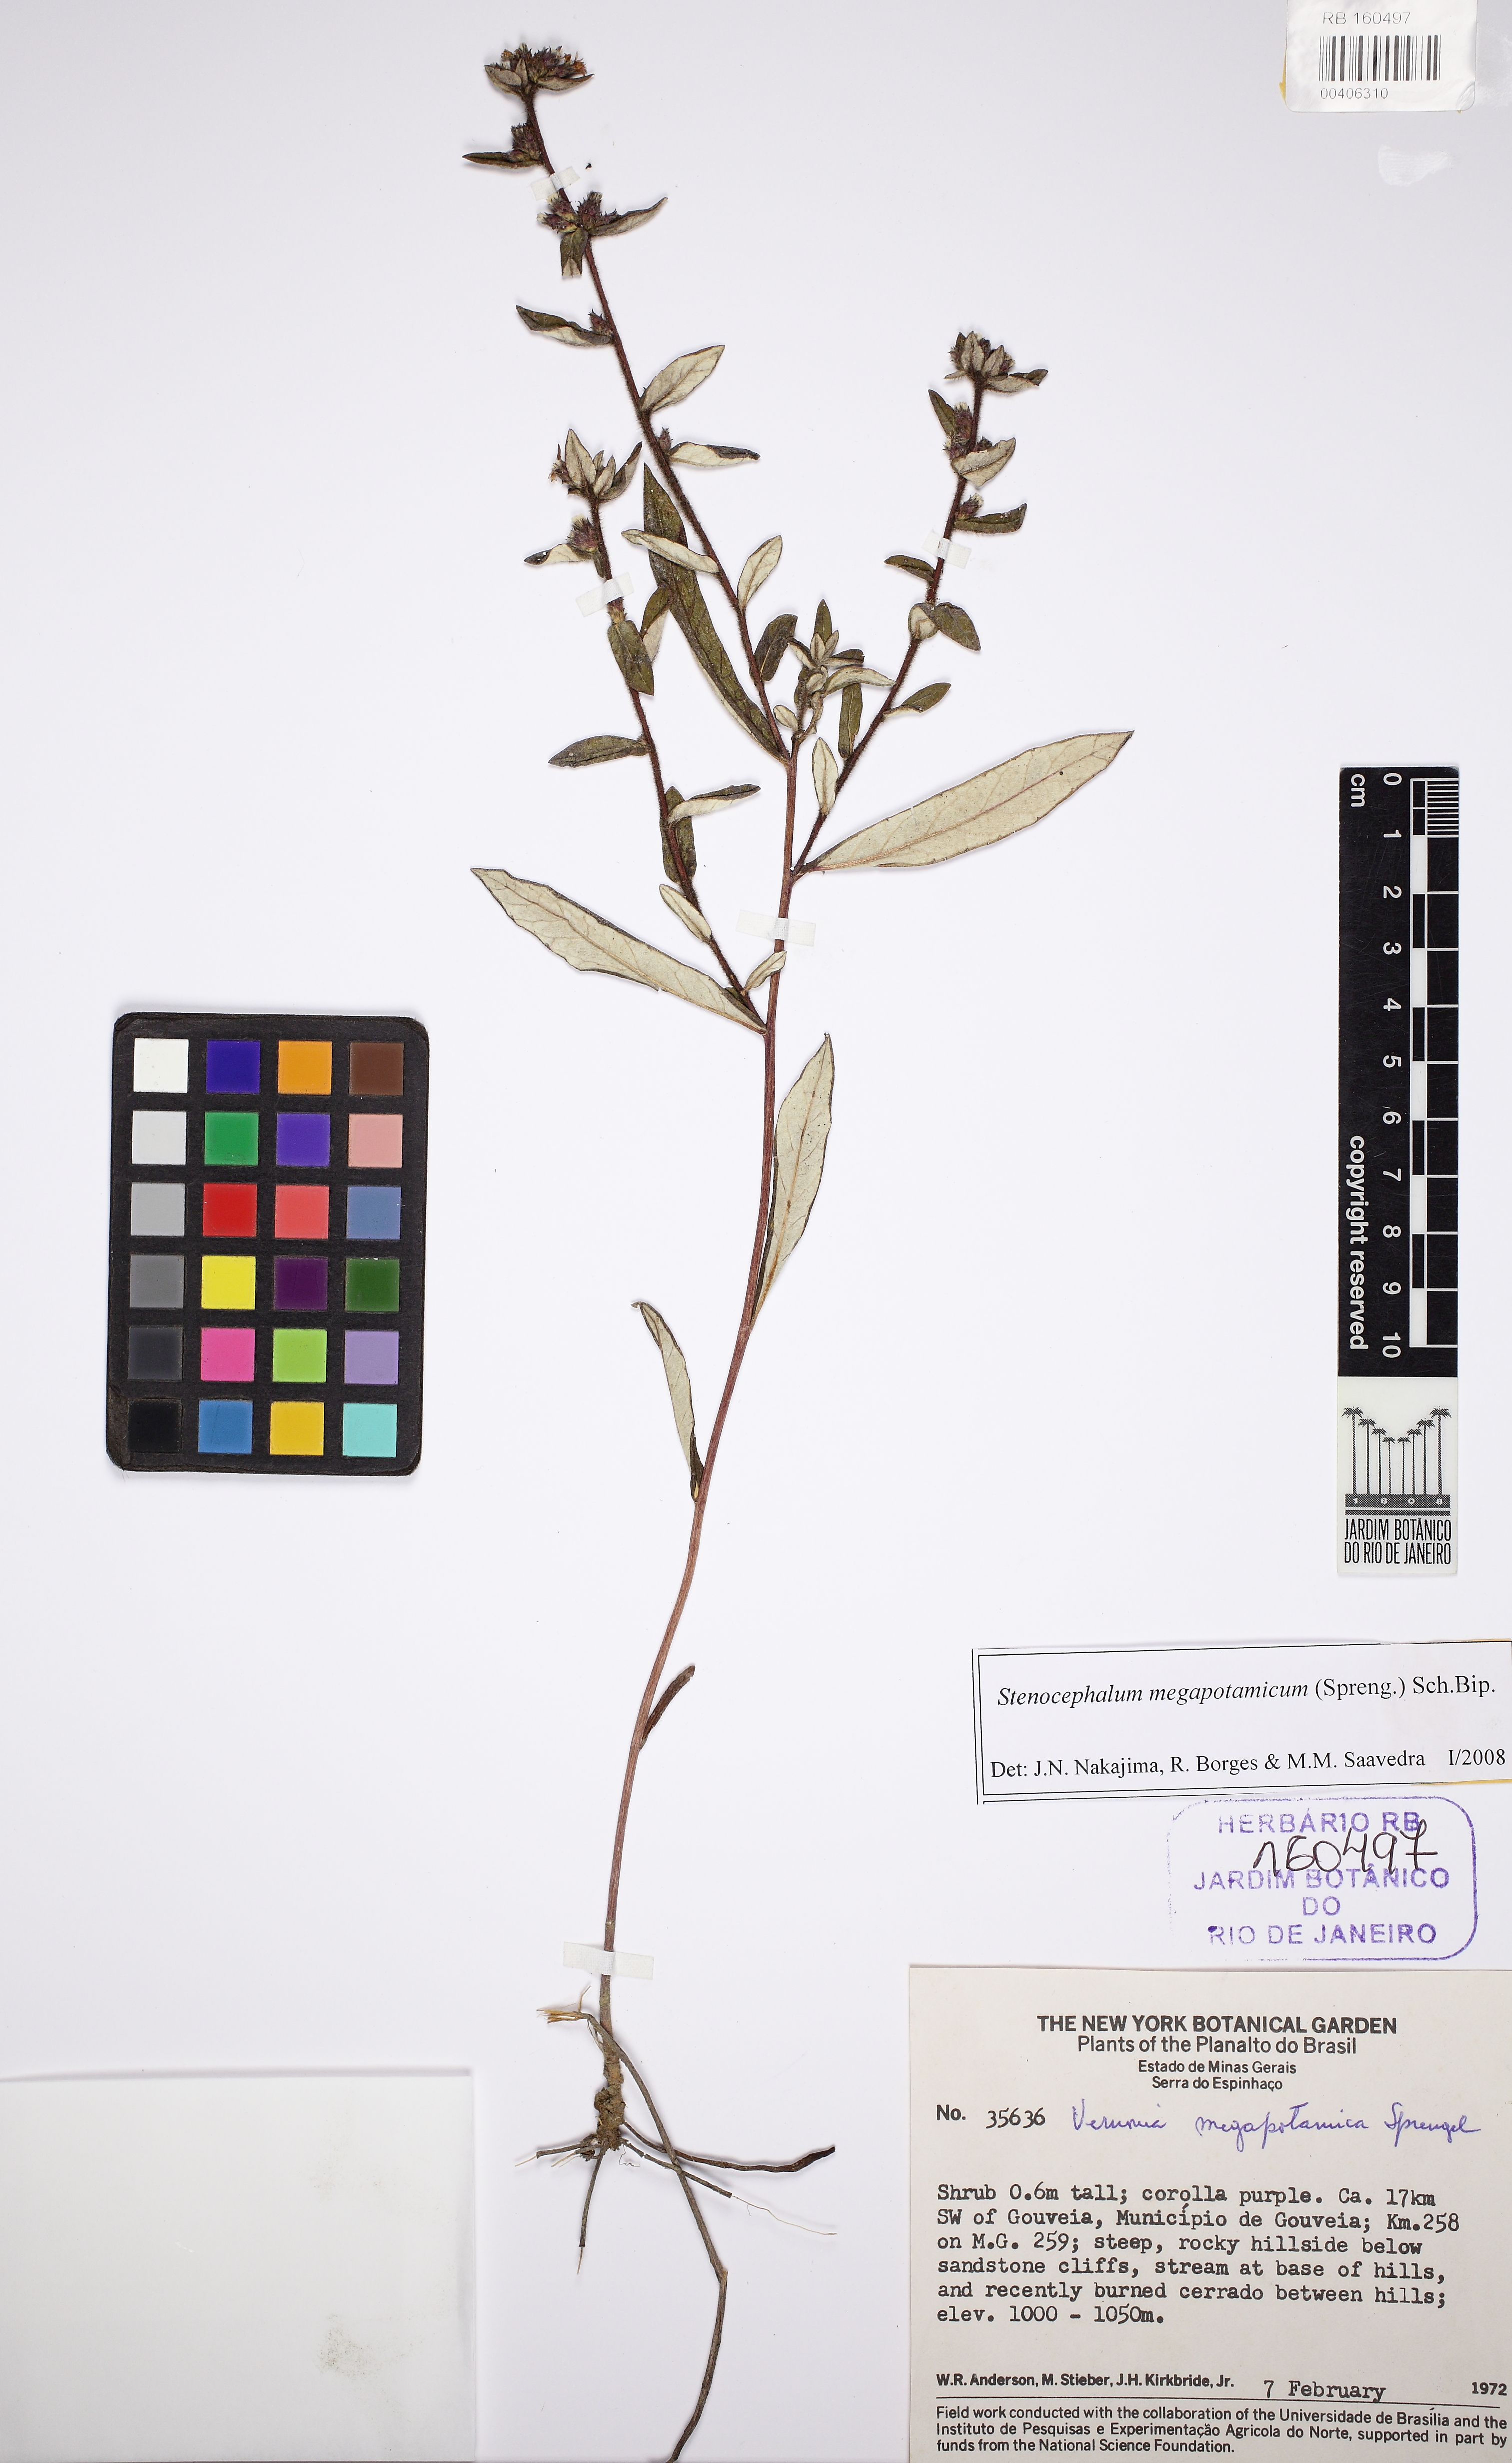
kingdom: Plantae
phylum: Tracheophyta
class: Magnoliopsida
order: Asterales
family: Asteraceae
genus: Stenocephalum
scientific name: Stenocephalum megapotamicum
